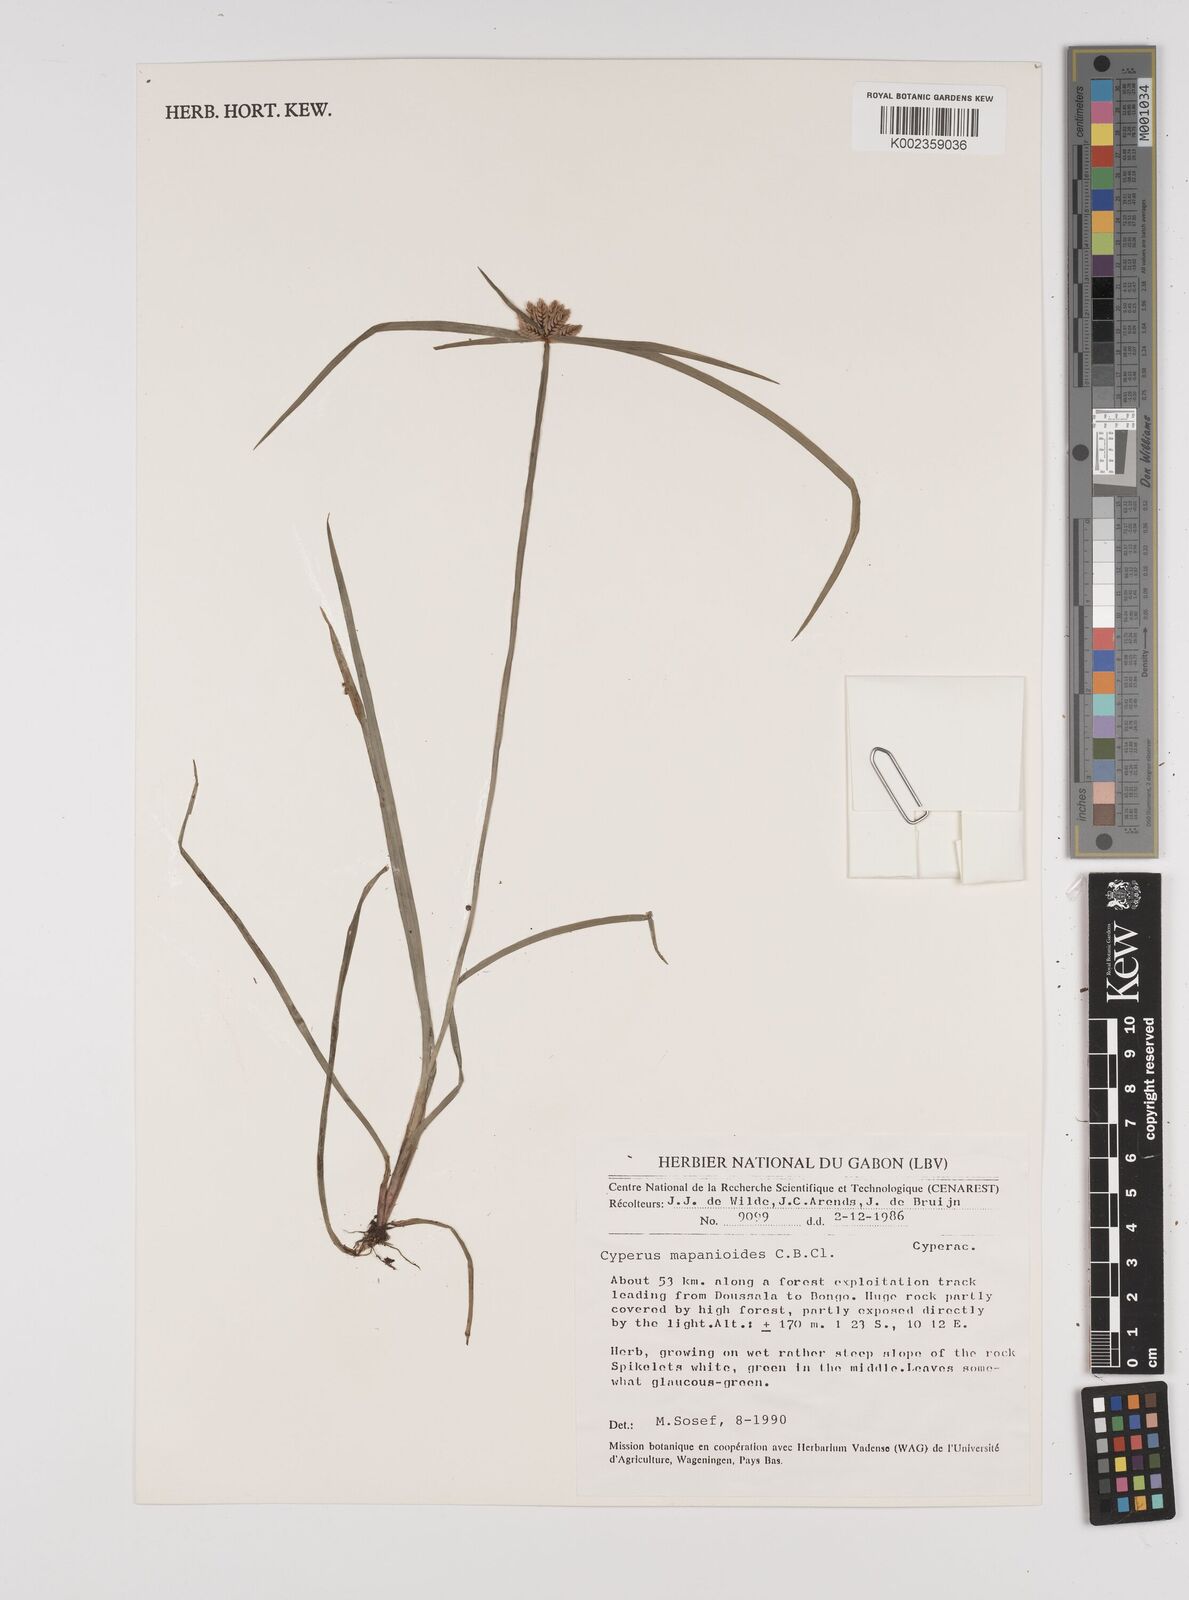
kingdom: Plantae
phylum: Tracheophyta
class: Liliopsida
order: Poales
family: Cyperaceae
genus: Cyperus
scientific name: Cyperus mapanioides
